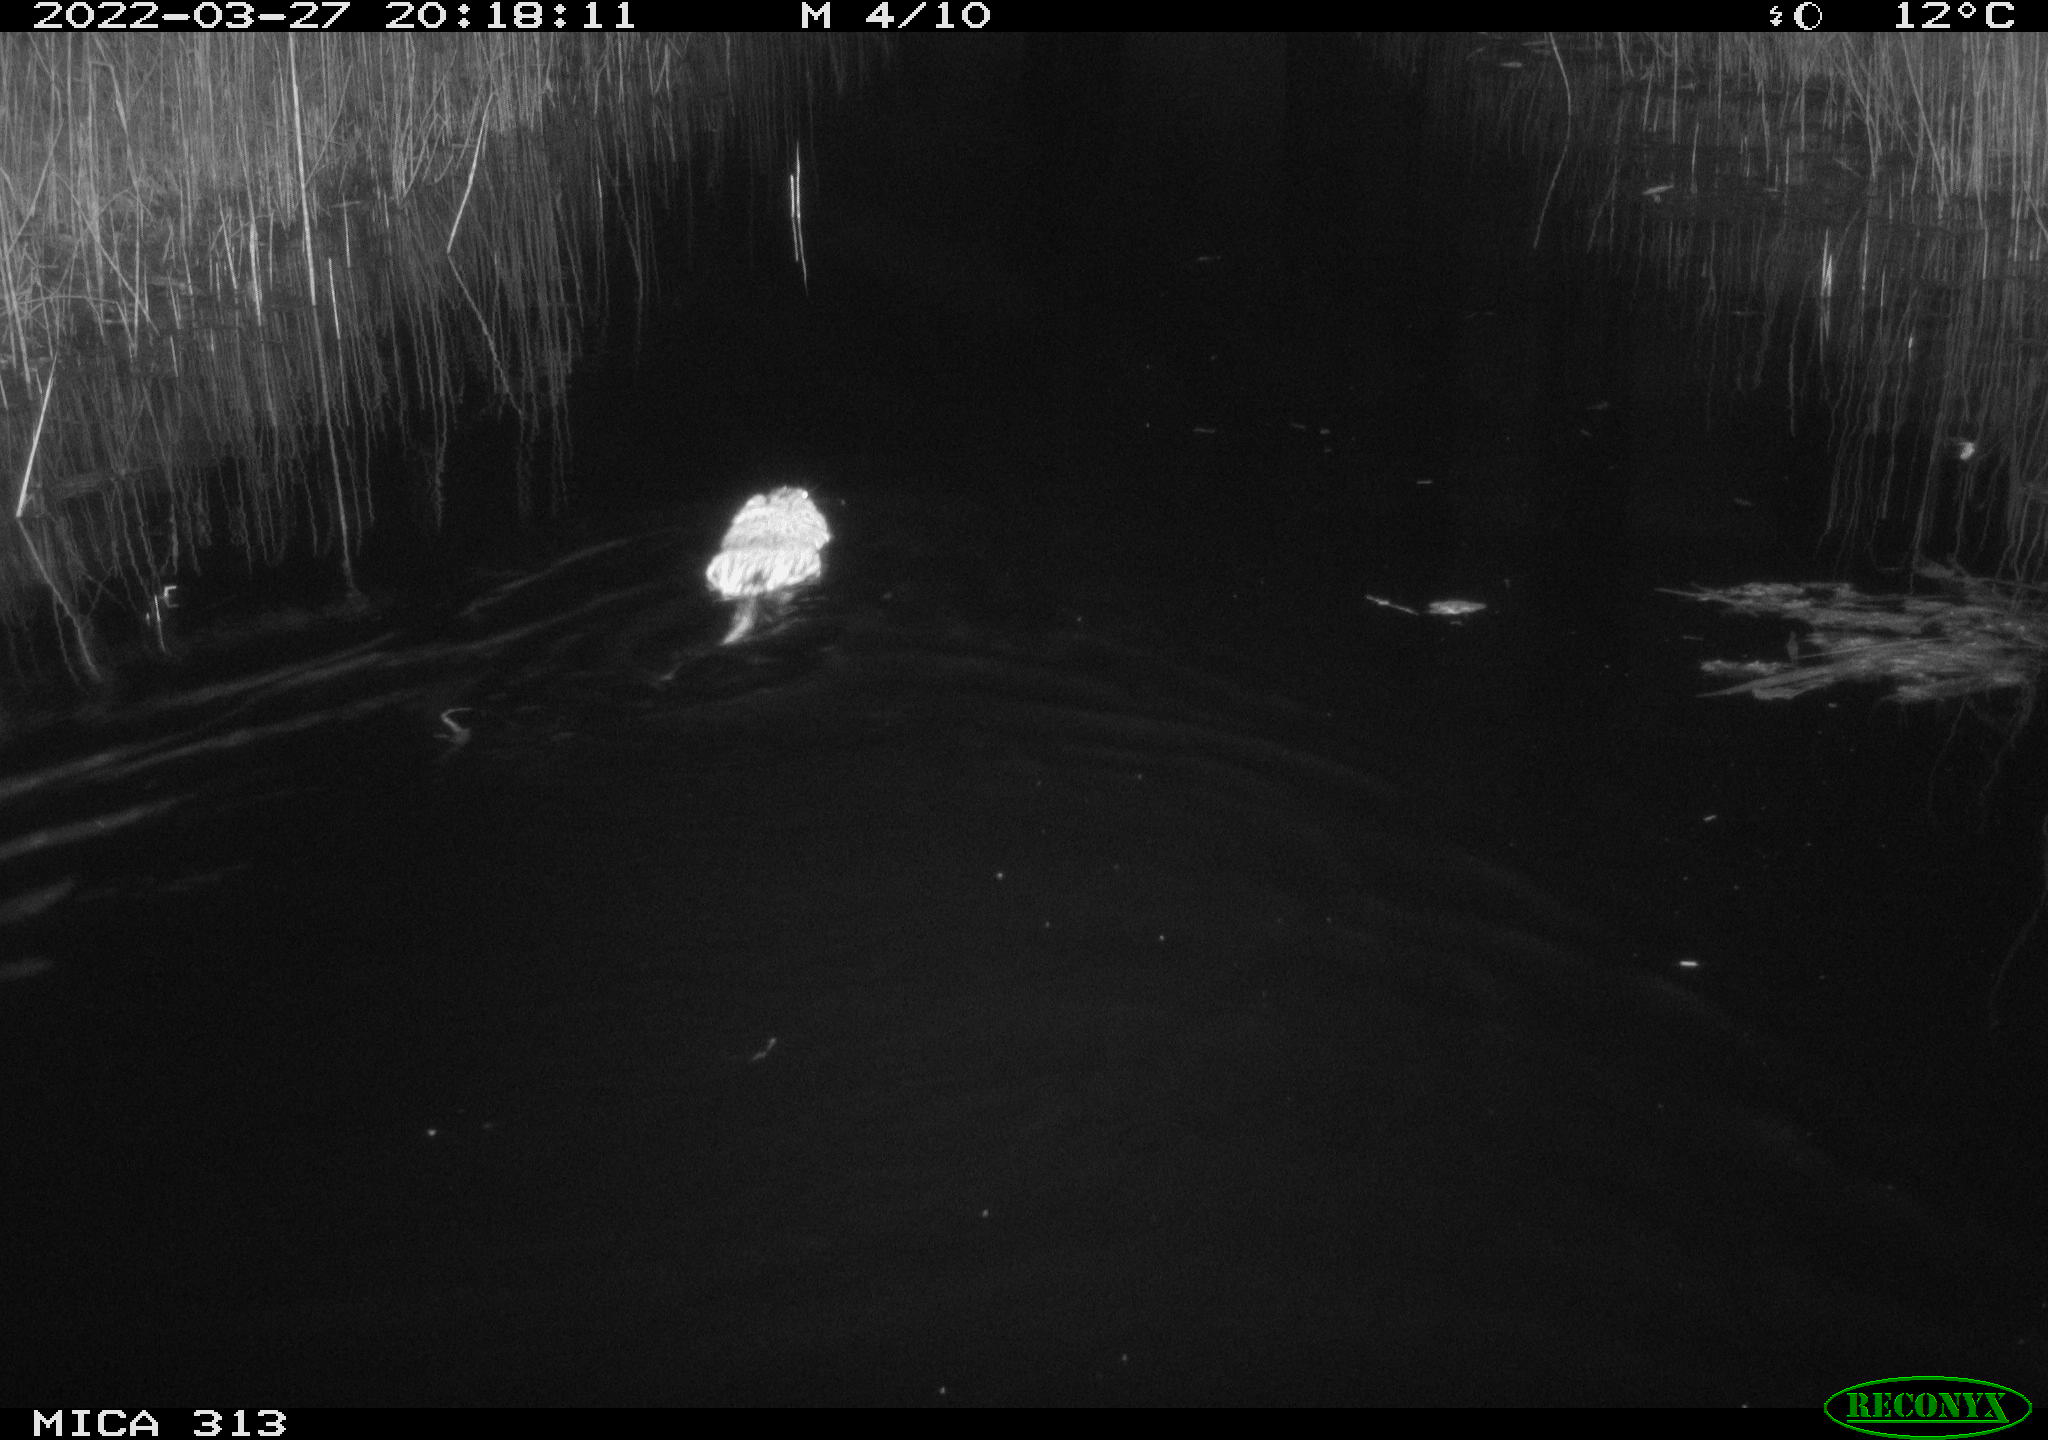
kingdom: Animalia
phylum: Chordata
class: Mammalia
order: Rodentia
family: Cricetidae
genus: Ondatra
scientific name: Ondatra zibethicus
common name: Muskrat
